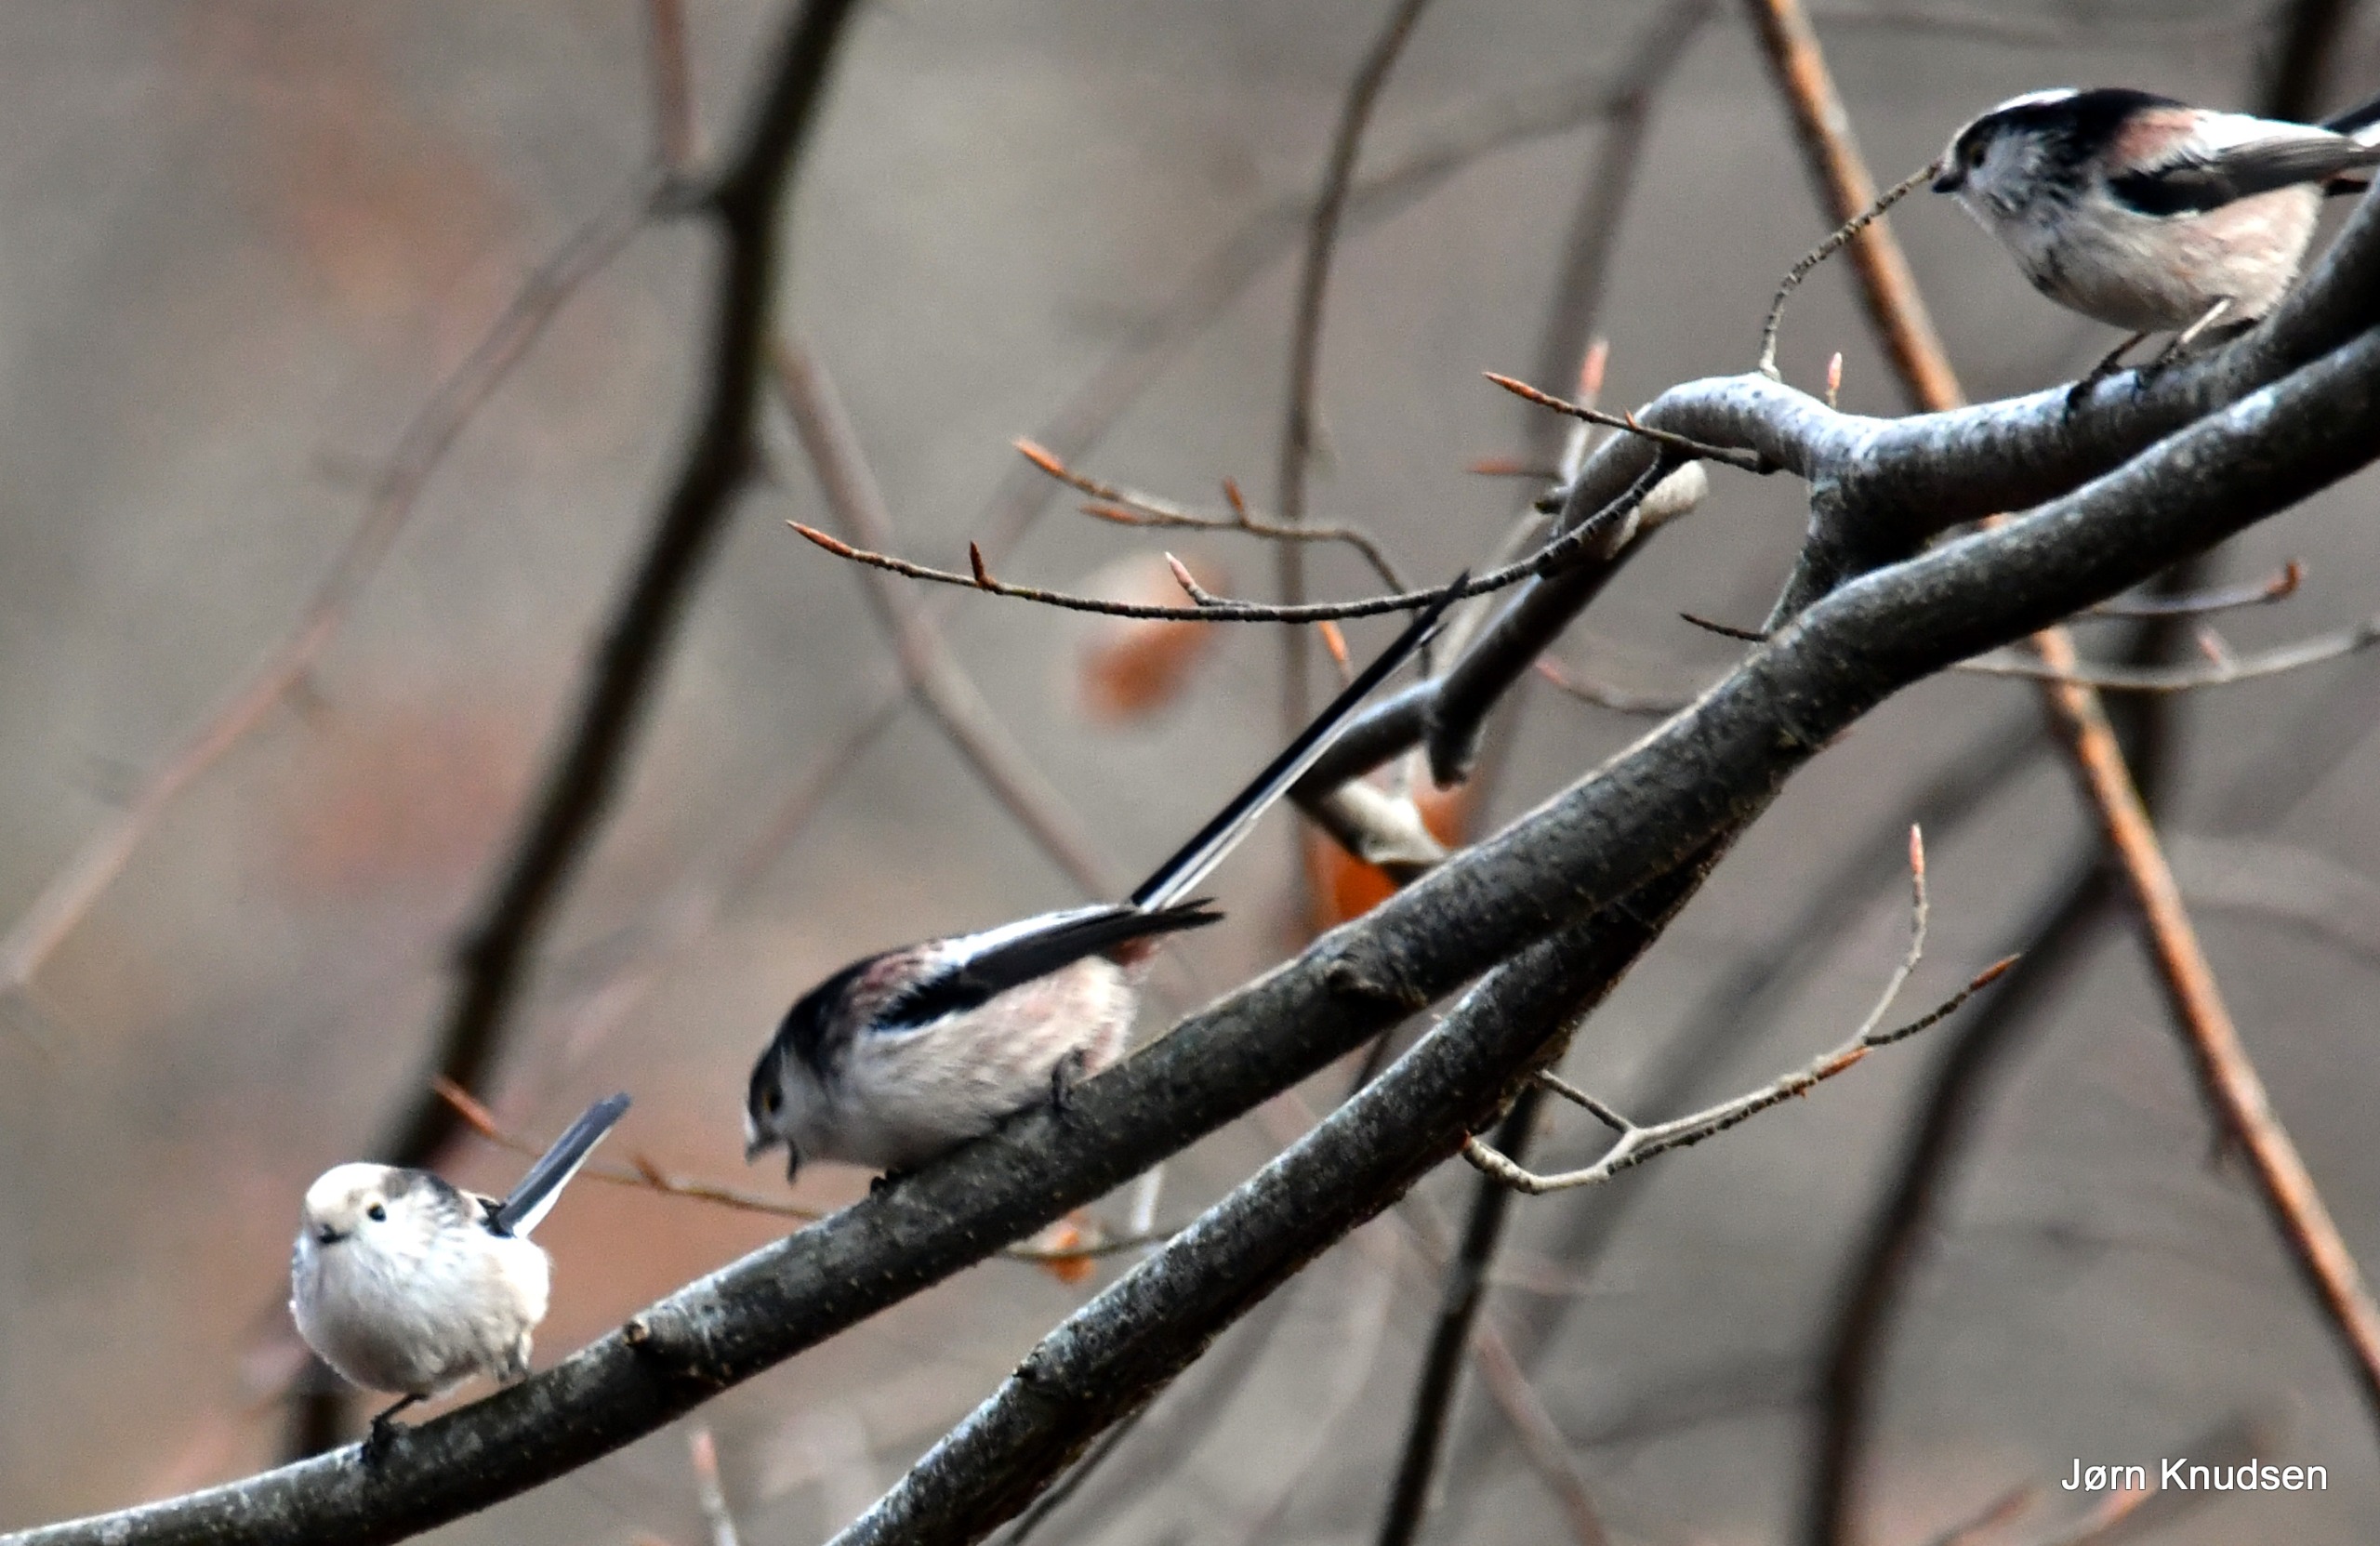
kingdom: Animalia
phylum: Chordata
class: Aves
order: Passeriformes
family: Aegithalidae
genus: Aegithalos
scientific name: Aegithalos caudatus
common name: Halemejse
